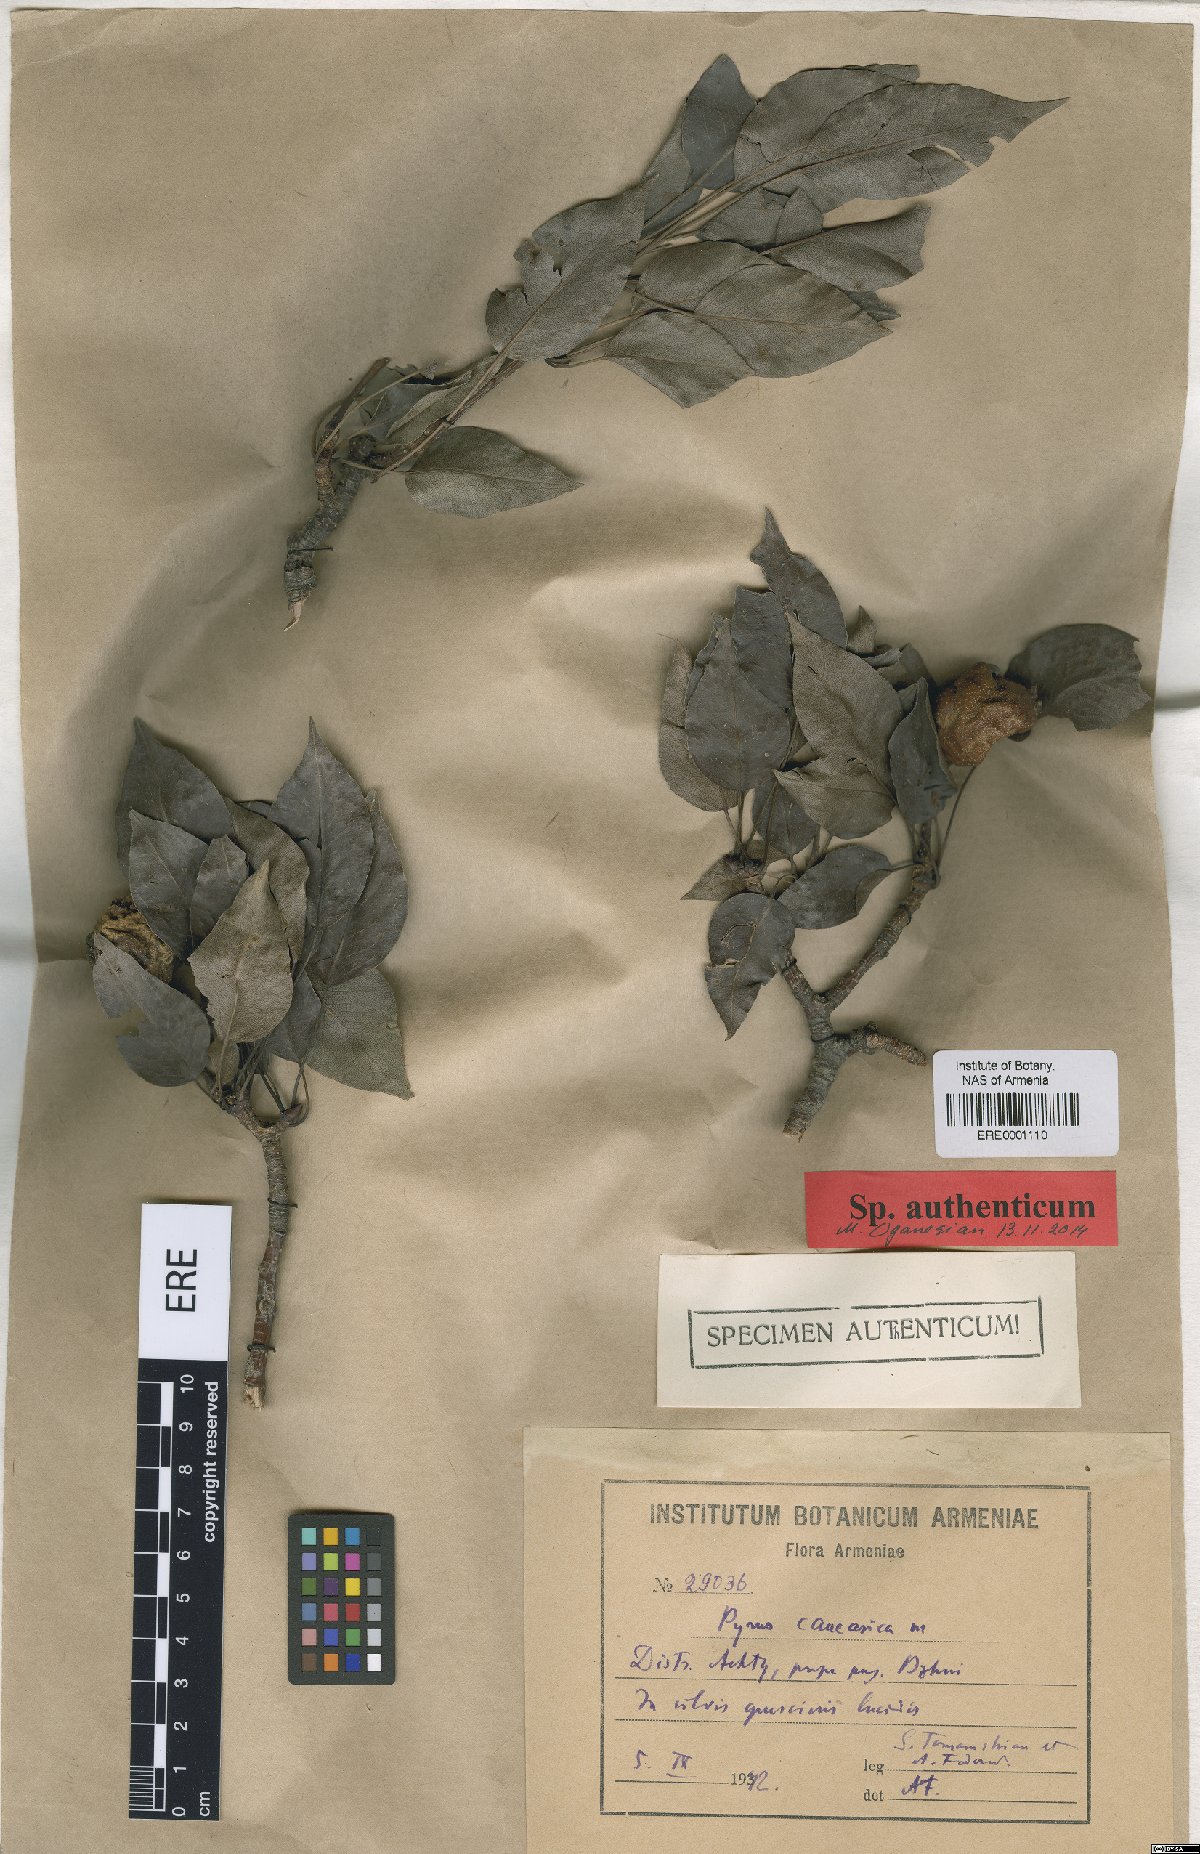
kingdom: Plantae
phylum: Tracheophyta
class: Magnoliopsida
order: Rosales
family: Rosaceae
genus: Pyrus
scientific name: Pyrus communis
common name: Pear
